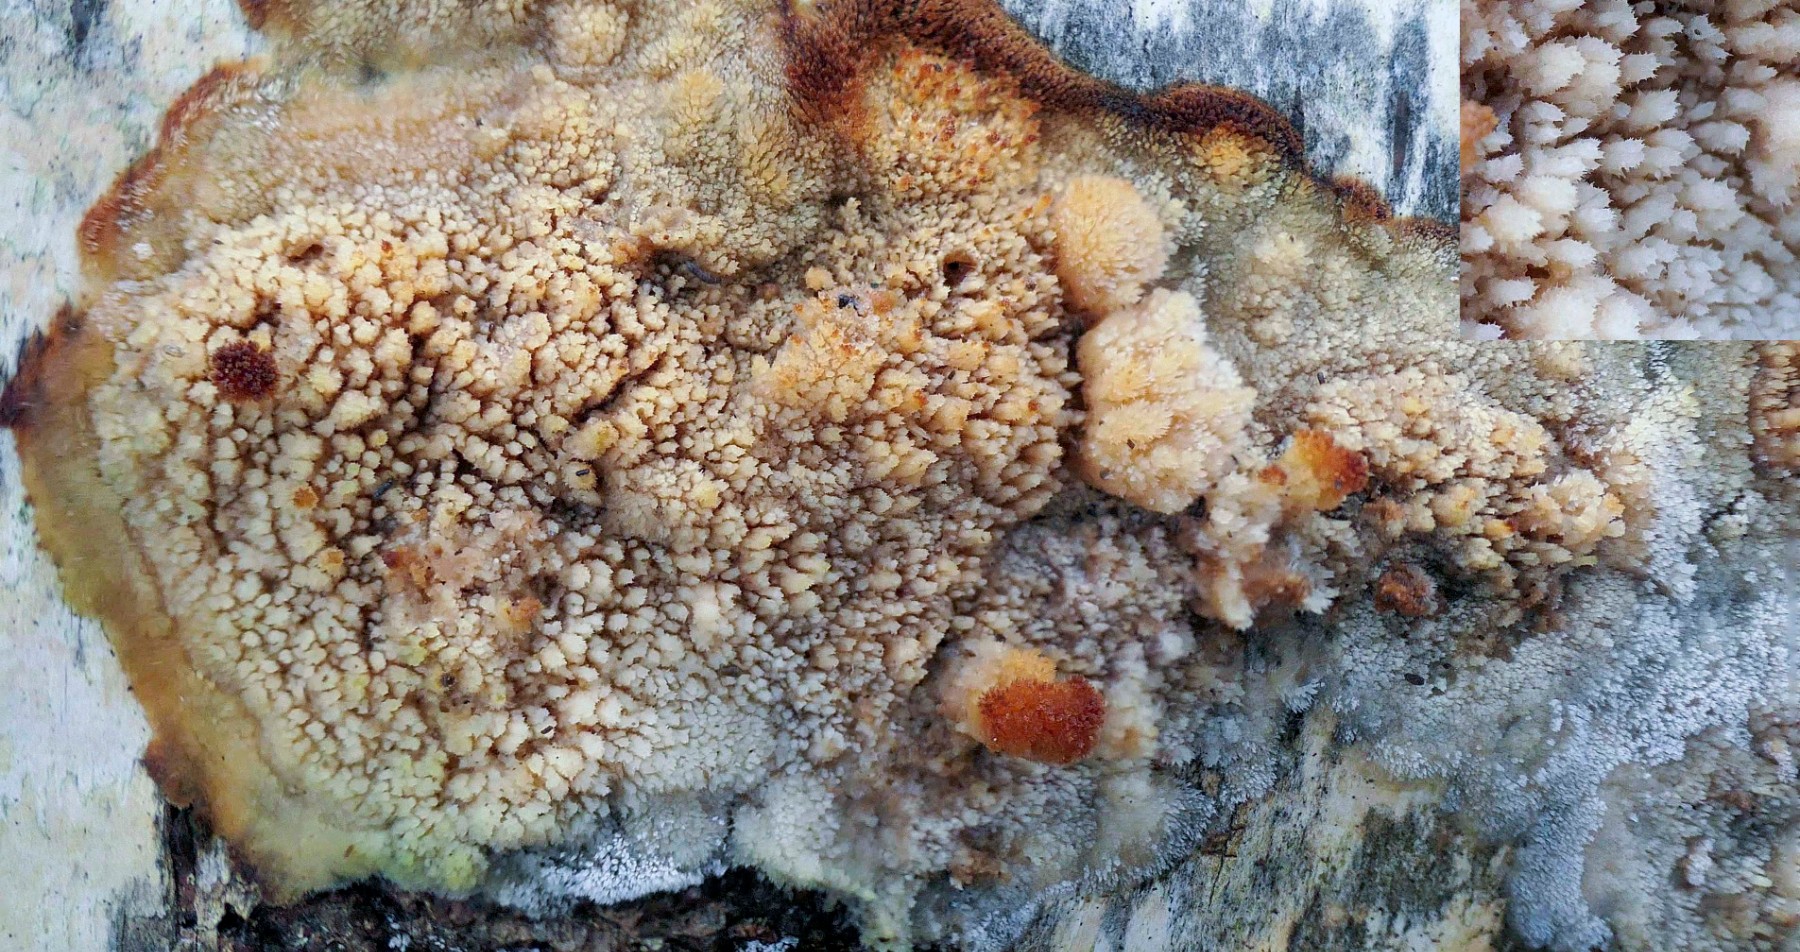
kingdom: Fungi
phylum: Basidiomycota
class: Agaricomycetes
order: Hymenochaetales
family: Hyphodontiaceae
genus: Hyphodontia
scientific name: Hyphodontia barba-jovis
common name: skægget tandsvamp
